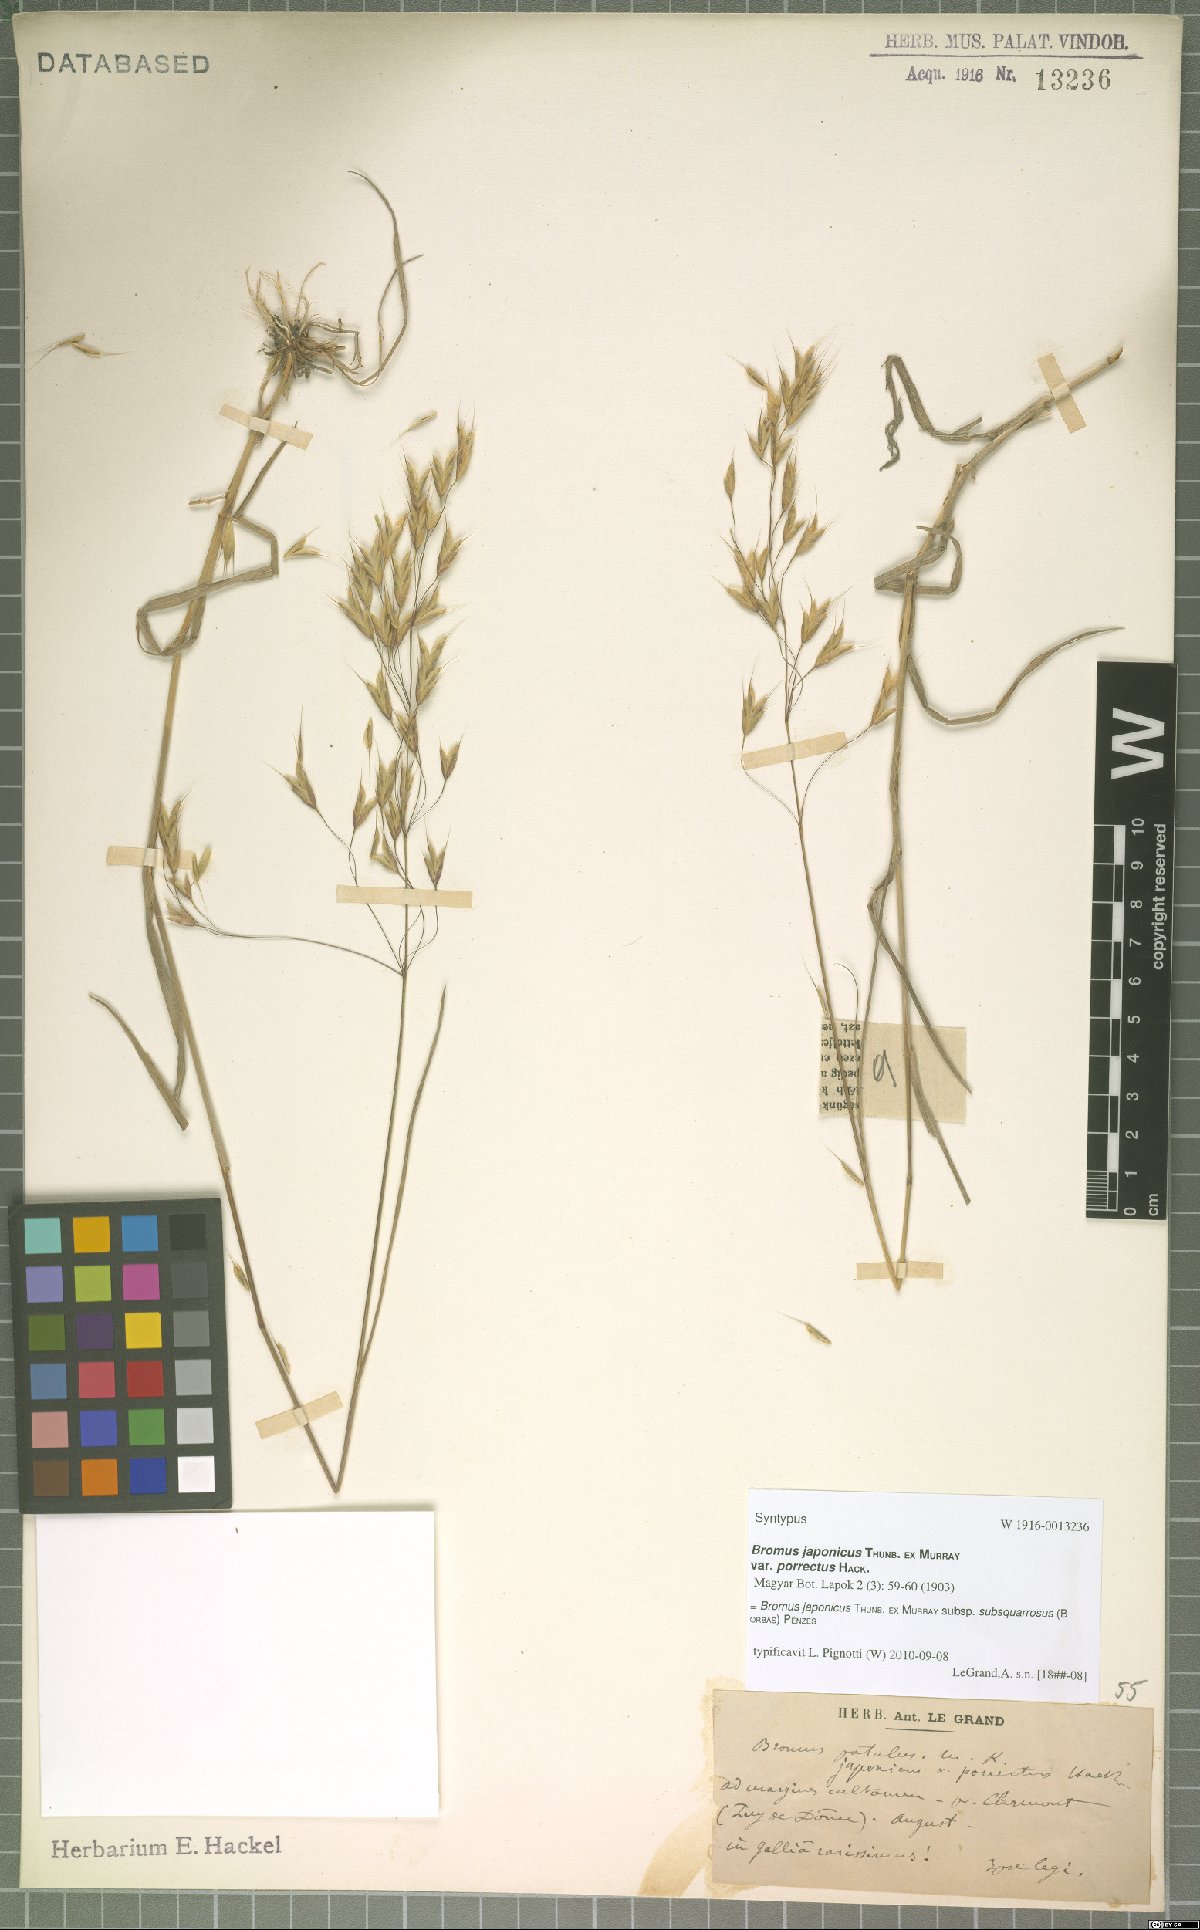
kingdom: Plantae
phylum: Tracheophyta
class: Liliopsida
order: Poales
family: Poaceae
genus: Bromus
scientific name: Bromus japonicus
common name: Japanese brome
